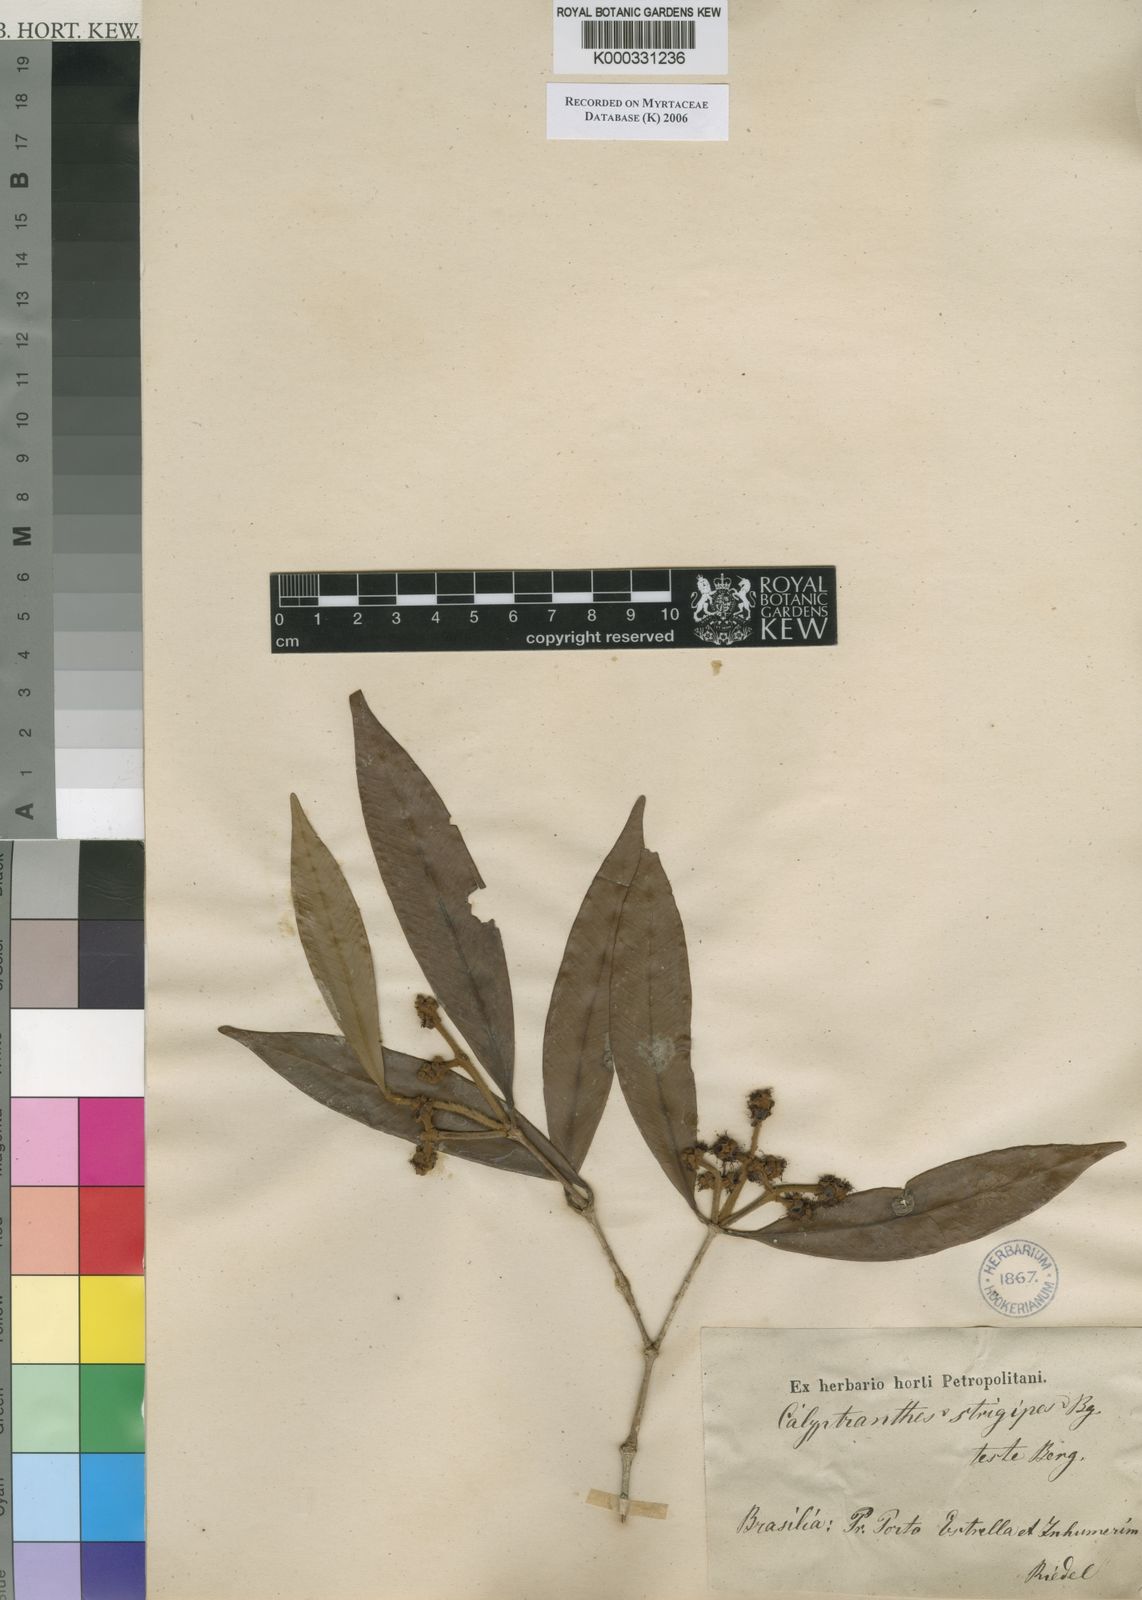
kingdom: Plantae
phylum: Tracheophyta
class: Magnoliopsida
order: Myrtales
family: Myrtaceae
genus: Myrcia
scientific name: Myrcia strigosa
